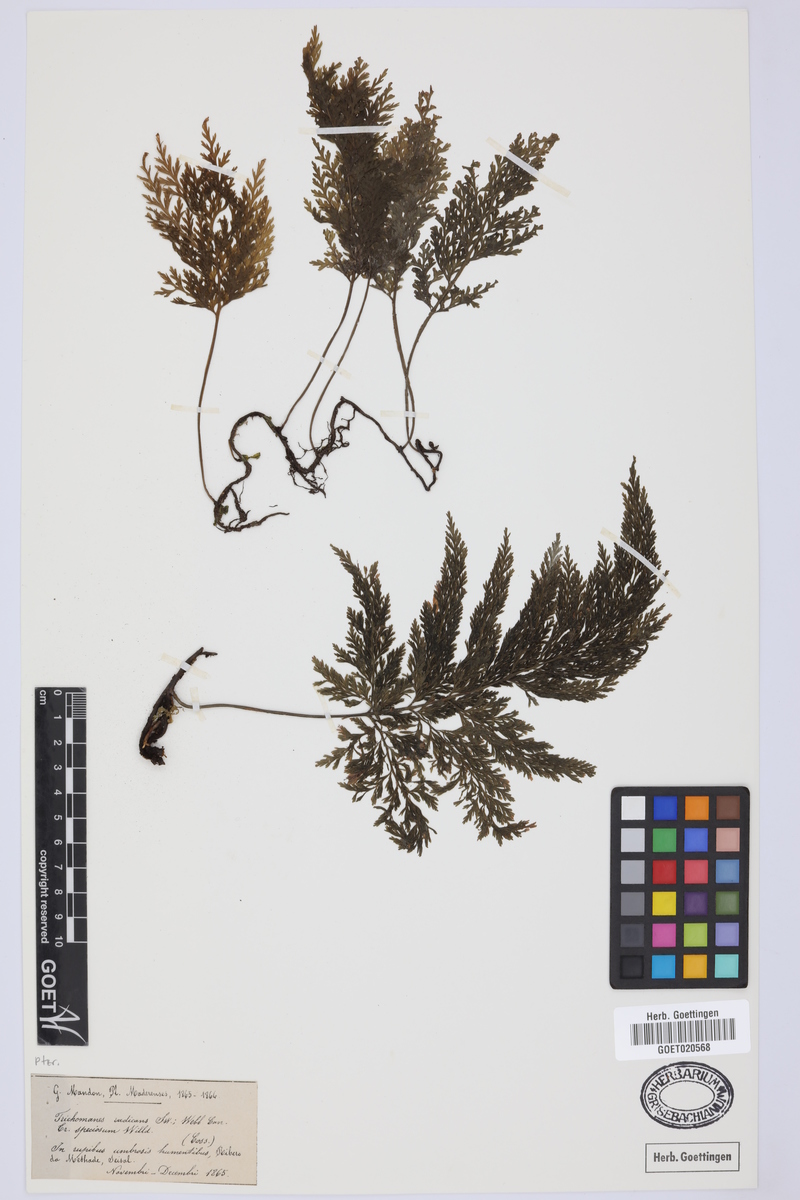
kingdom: Plantae
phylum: Tracheophyta
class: Polypodiopsida
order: Hymenophyllales
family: Hymenophyllaceae
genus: Vandenboschia
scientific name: Vandenboschia speciosa
